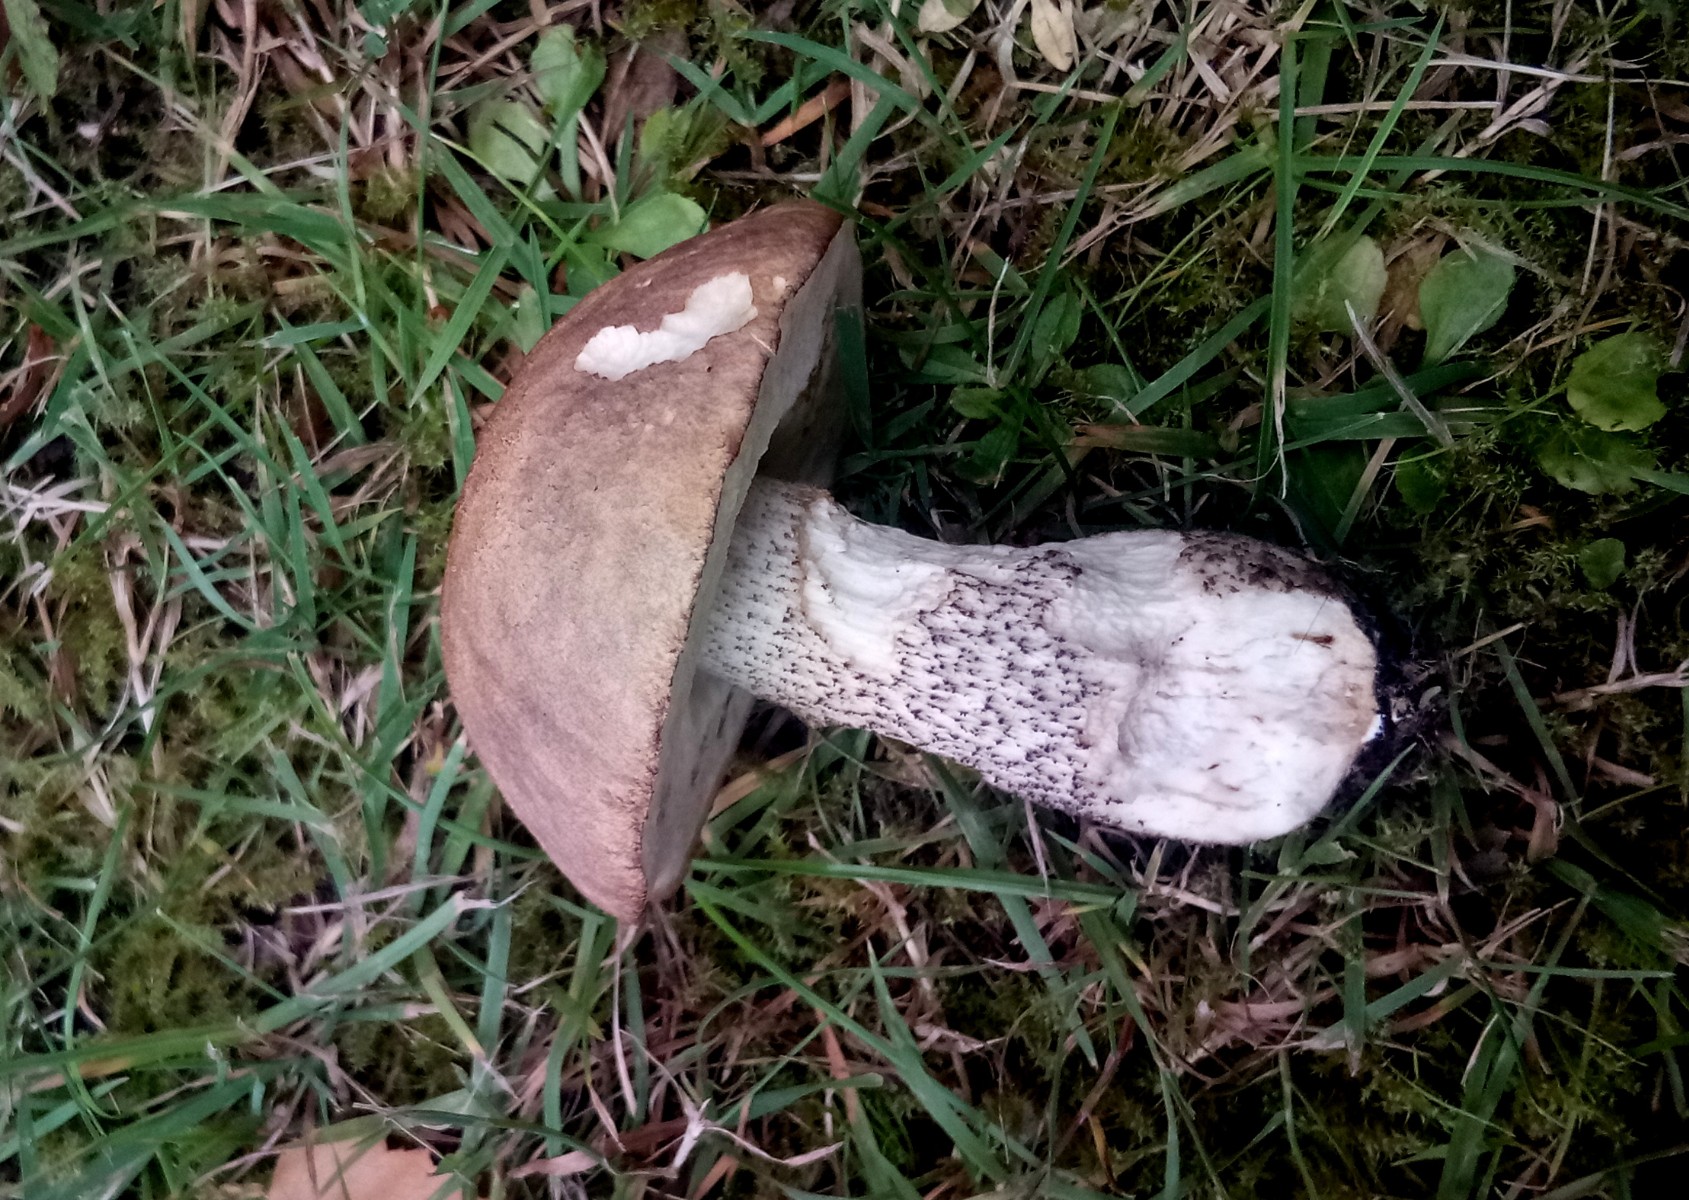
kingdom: Fungi
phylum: Basidiomycota
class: Agaricomycetes
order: Boletales
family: Boletaceae
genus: Leccinum
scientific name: Leccinum scabrum
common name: brun skælrørhat
